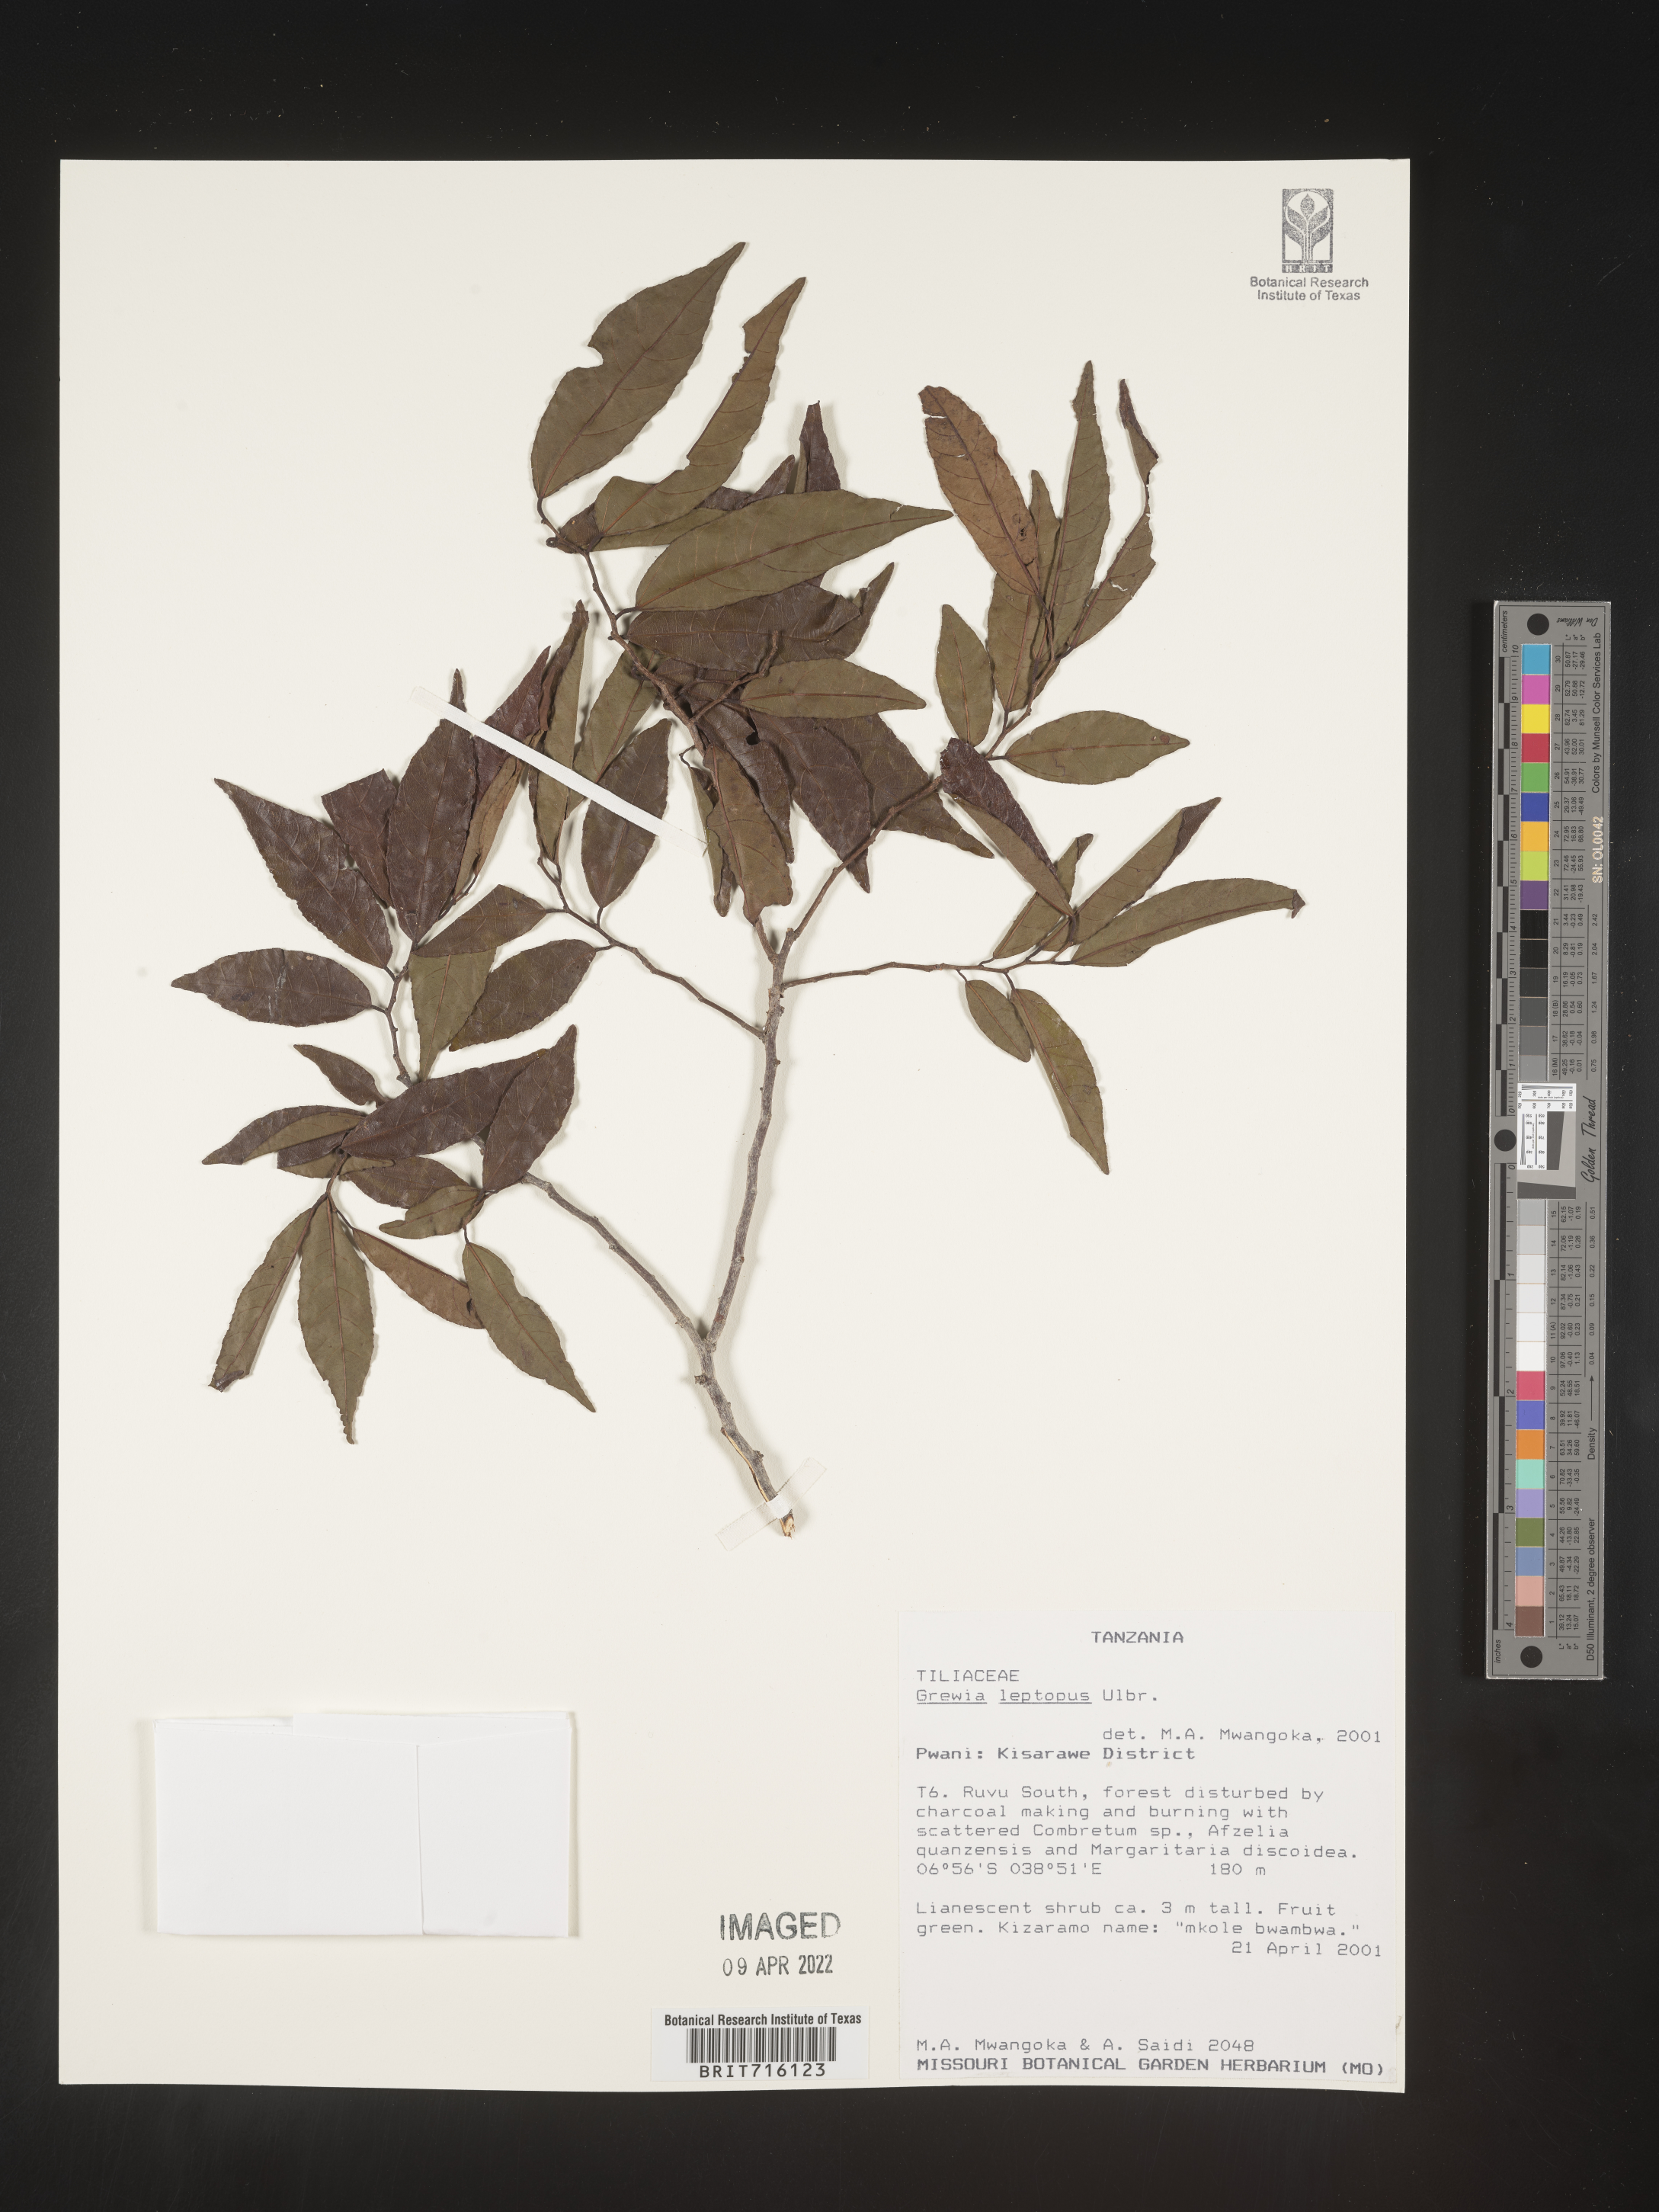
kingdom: Plantae
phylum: Tracheophyta
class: Magnoliopsida
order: Malvales
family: Malvaceae
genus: Grewia
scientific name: Grewia
